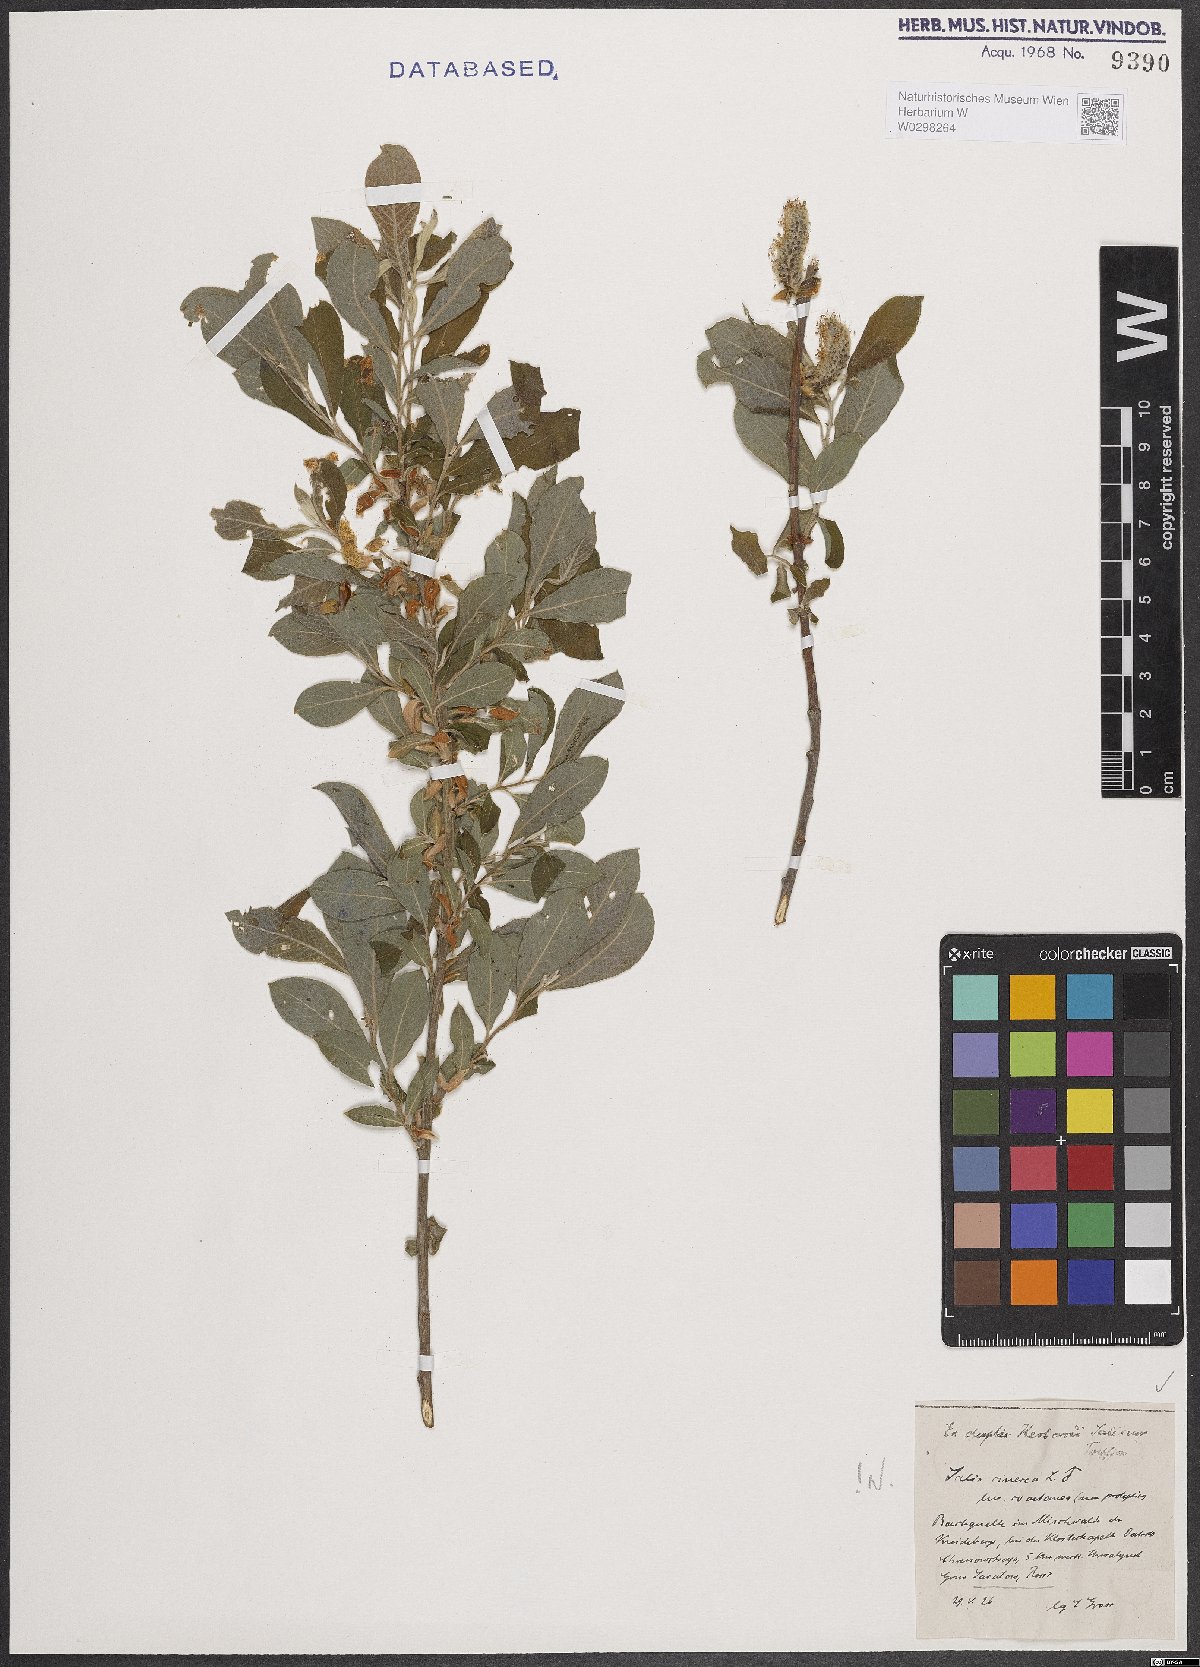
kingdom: Plantae
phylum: Tracheophyta
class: Magnoliopsida
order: Malpighiales
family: Salicaceae
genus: Salix
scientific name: Salix cinerea
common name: Common sallow
